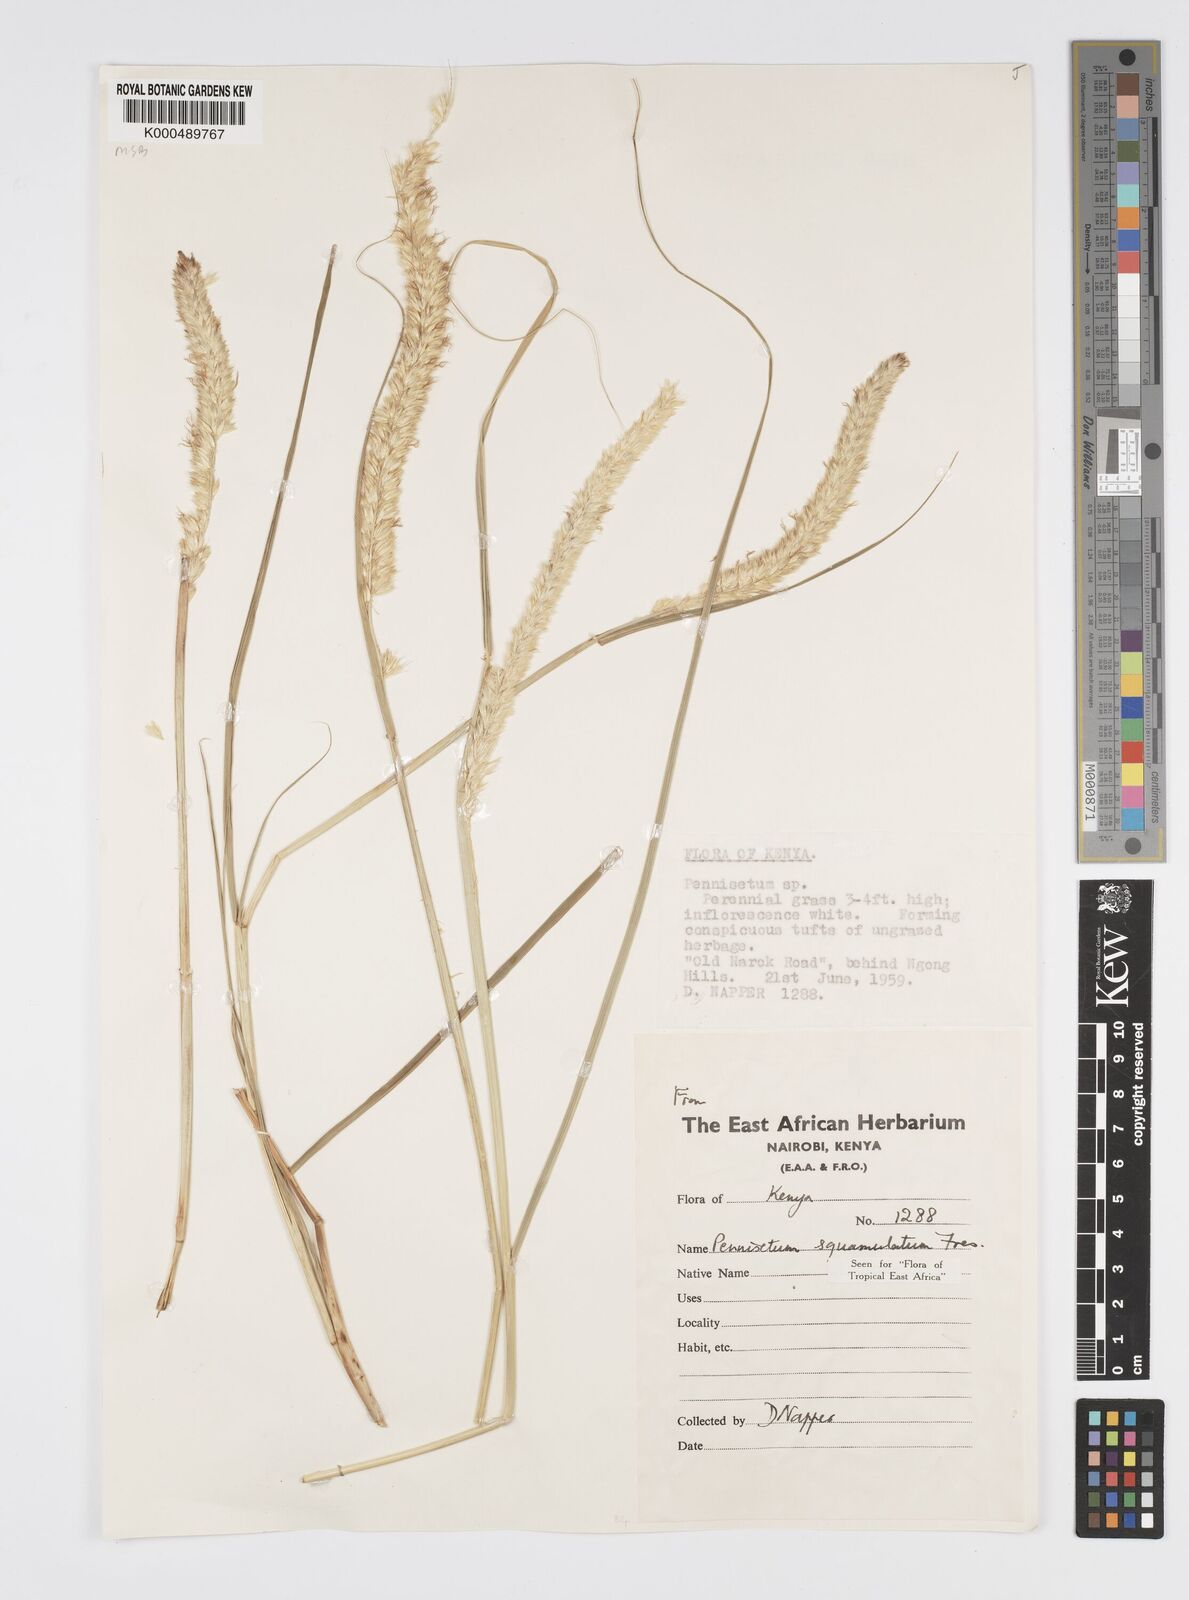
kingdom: Plantae
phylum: Tracheophyta
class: Liliopsida
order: Poales
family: Poaceae
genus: Cenchrus
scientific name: Cenchrus squamulatus
